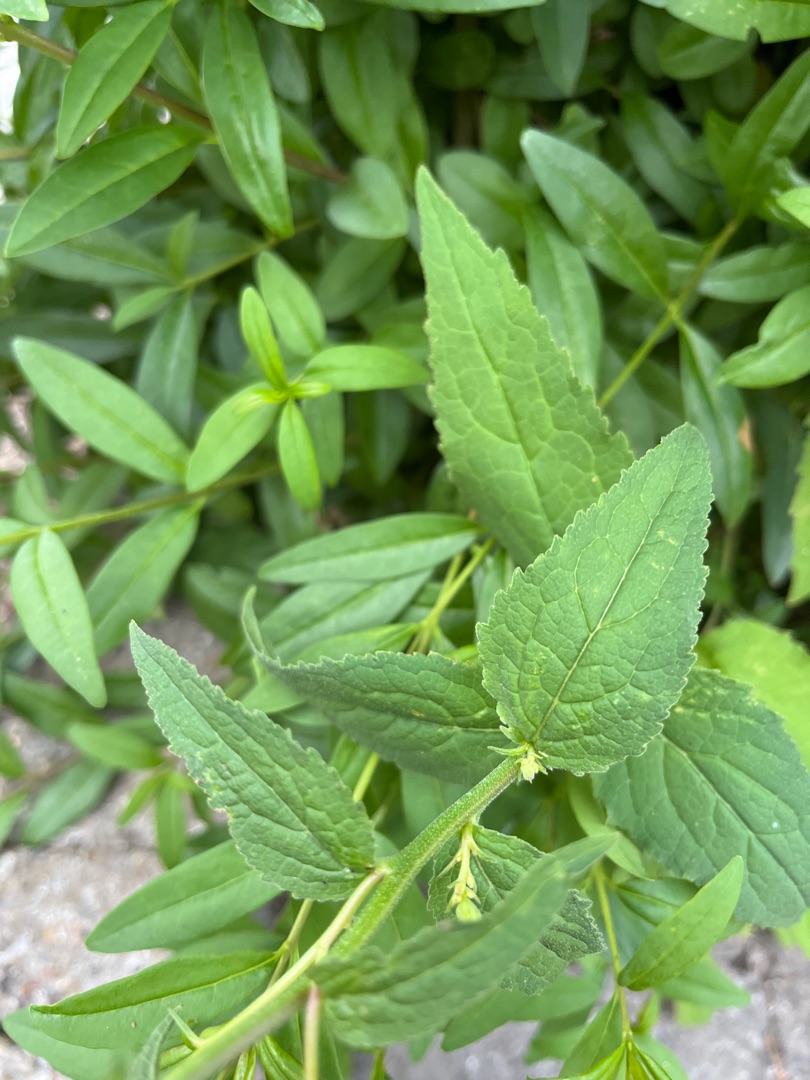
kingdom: Plantae
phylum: Tracheophyta
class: Magnoliopsida
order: Asterales
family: Campanulaceae
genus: Campanula
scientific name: Campanula rapunculoides
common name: Ensidig klokke
